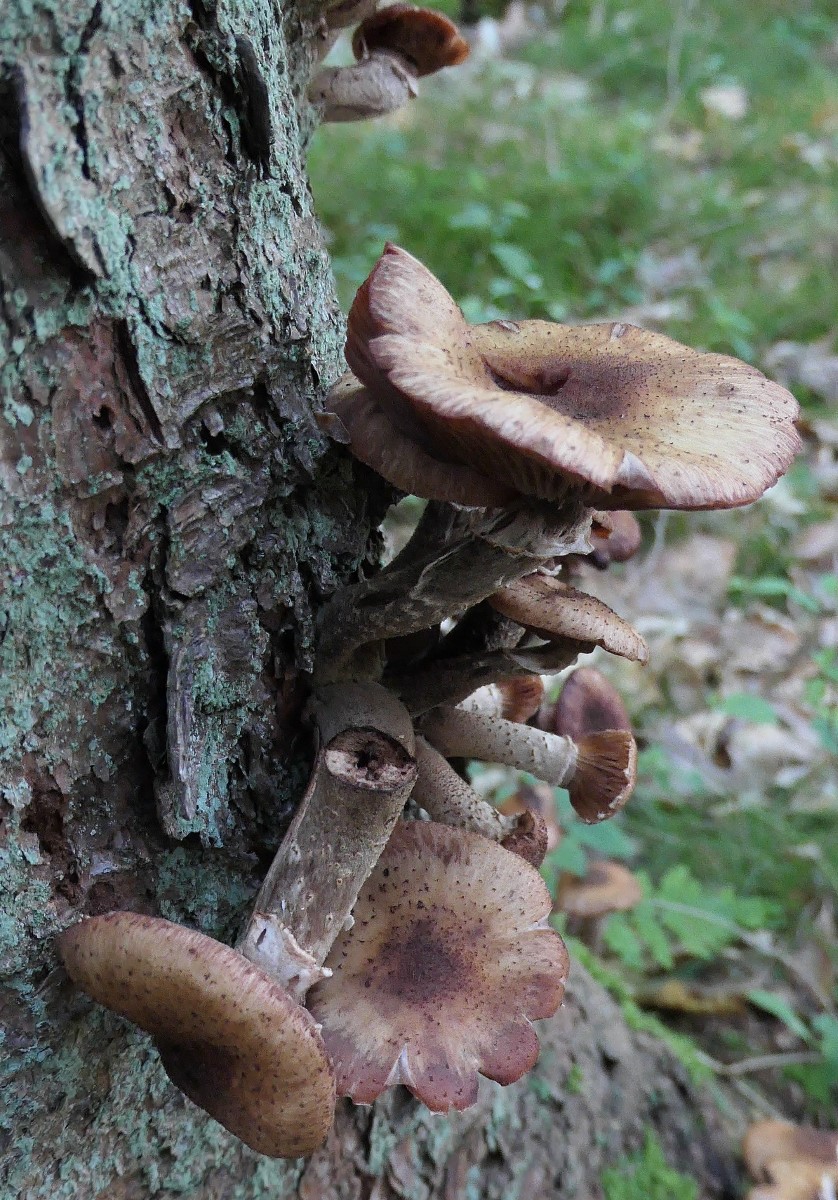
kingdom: Fungi
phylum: Basidiomycota
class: Agaricomycetes
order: Agaricales
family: Physalacriaceae
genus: Armillaria
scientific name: Armillaria ostoyae
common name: mørk honningsvamp
